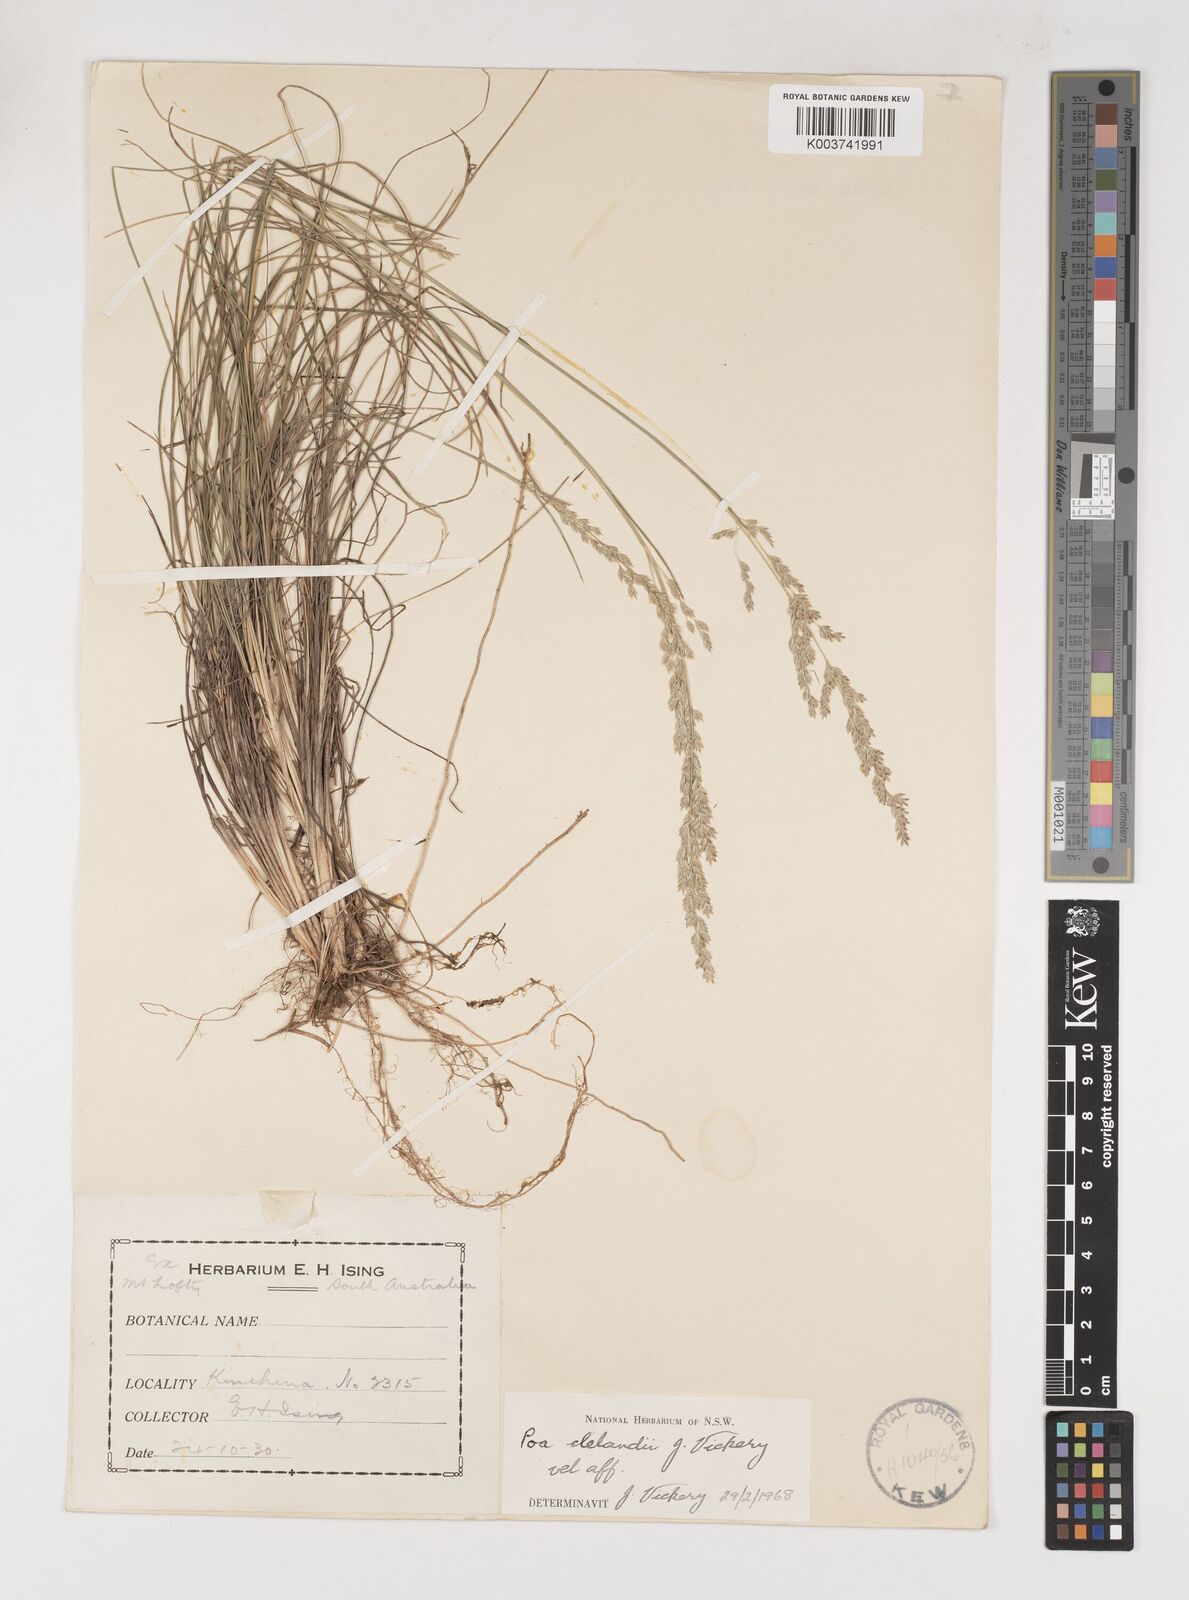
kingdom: Plantae
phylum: Tracheophyta
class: Liliopsida
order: Poales
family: Poaceae
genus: Poa
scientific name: Poa clelandii
